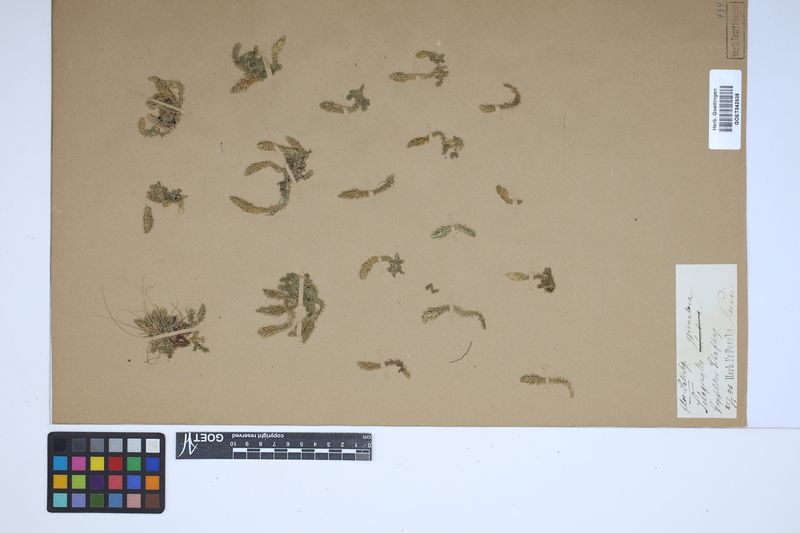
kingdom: Plantae
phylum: Tracheophyta
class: Lycopodiopsida
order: Selaginellales
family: Selaginellaceae
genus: Selaginella
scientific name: Selaginella selaginoides
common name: Prickly mountain-moss
